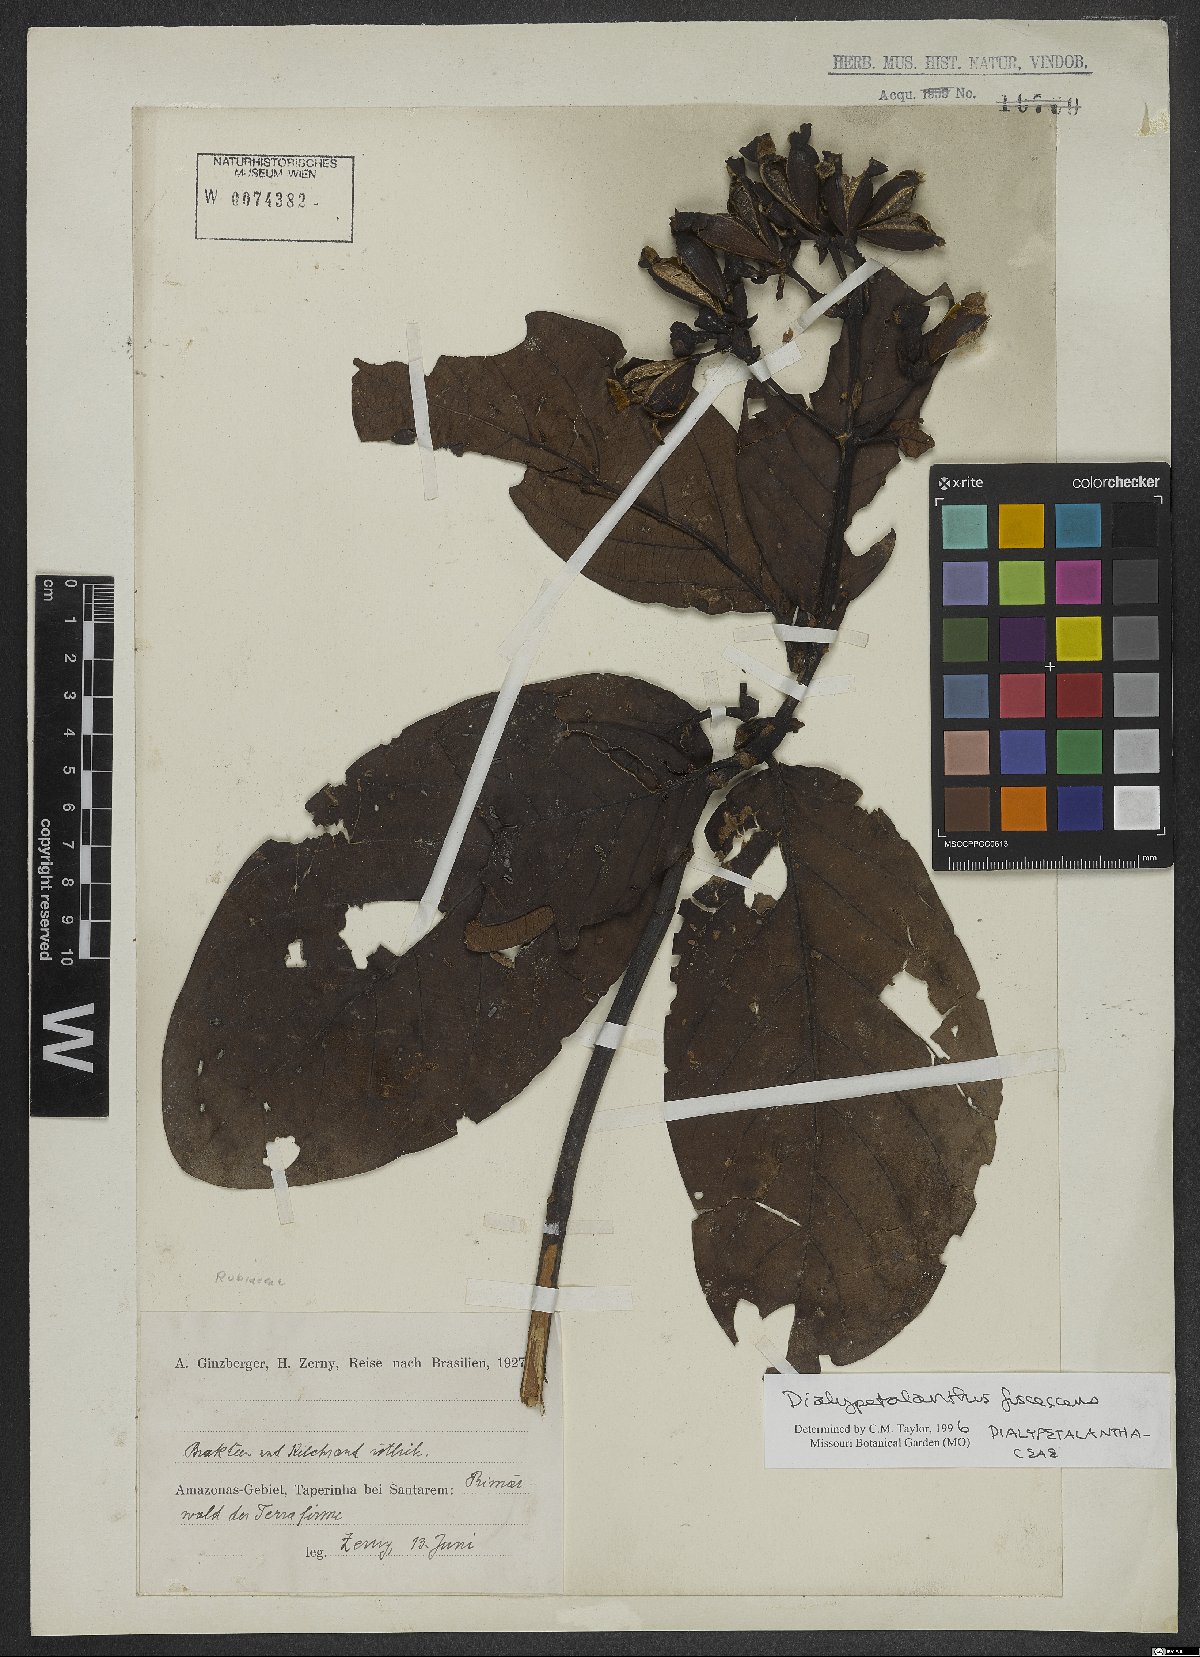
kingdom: Plantae
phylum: Tracheophyta
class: Magnoliopsida
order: Gentianales
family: Rubiaceae
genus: Dialypetalanthus
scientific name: Dialypetalanthus fuscescens
